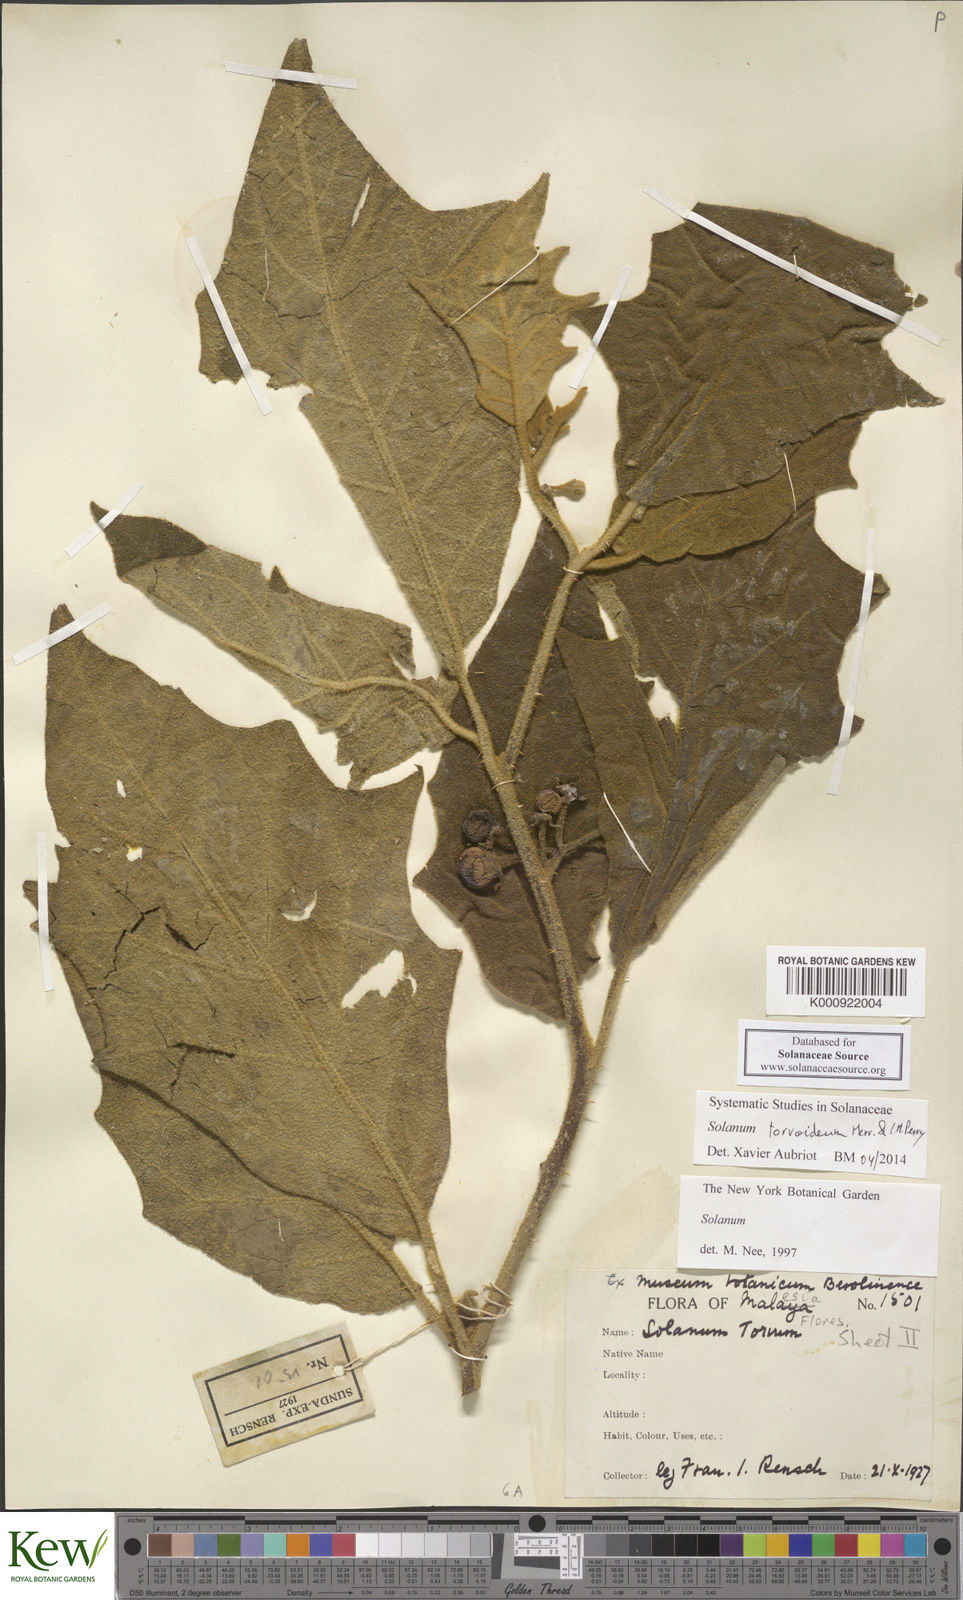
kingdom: Plantae
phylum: Tracheophyta
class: Magnoliopsida
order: Solanales
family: Solanaceae
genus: Solanum
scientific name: Solanum torvoideum
